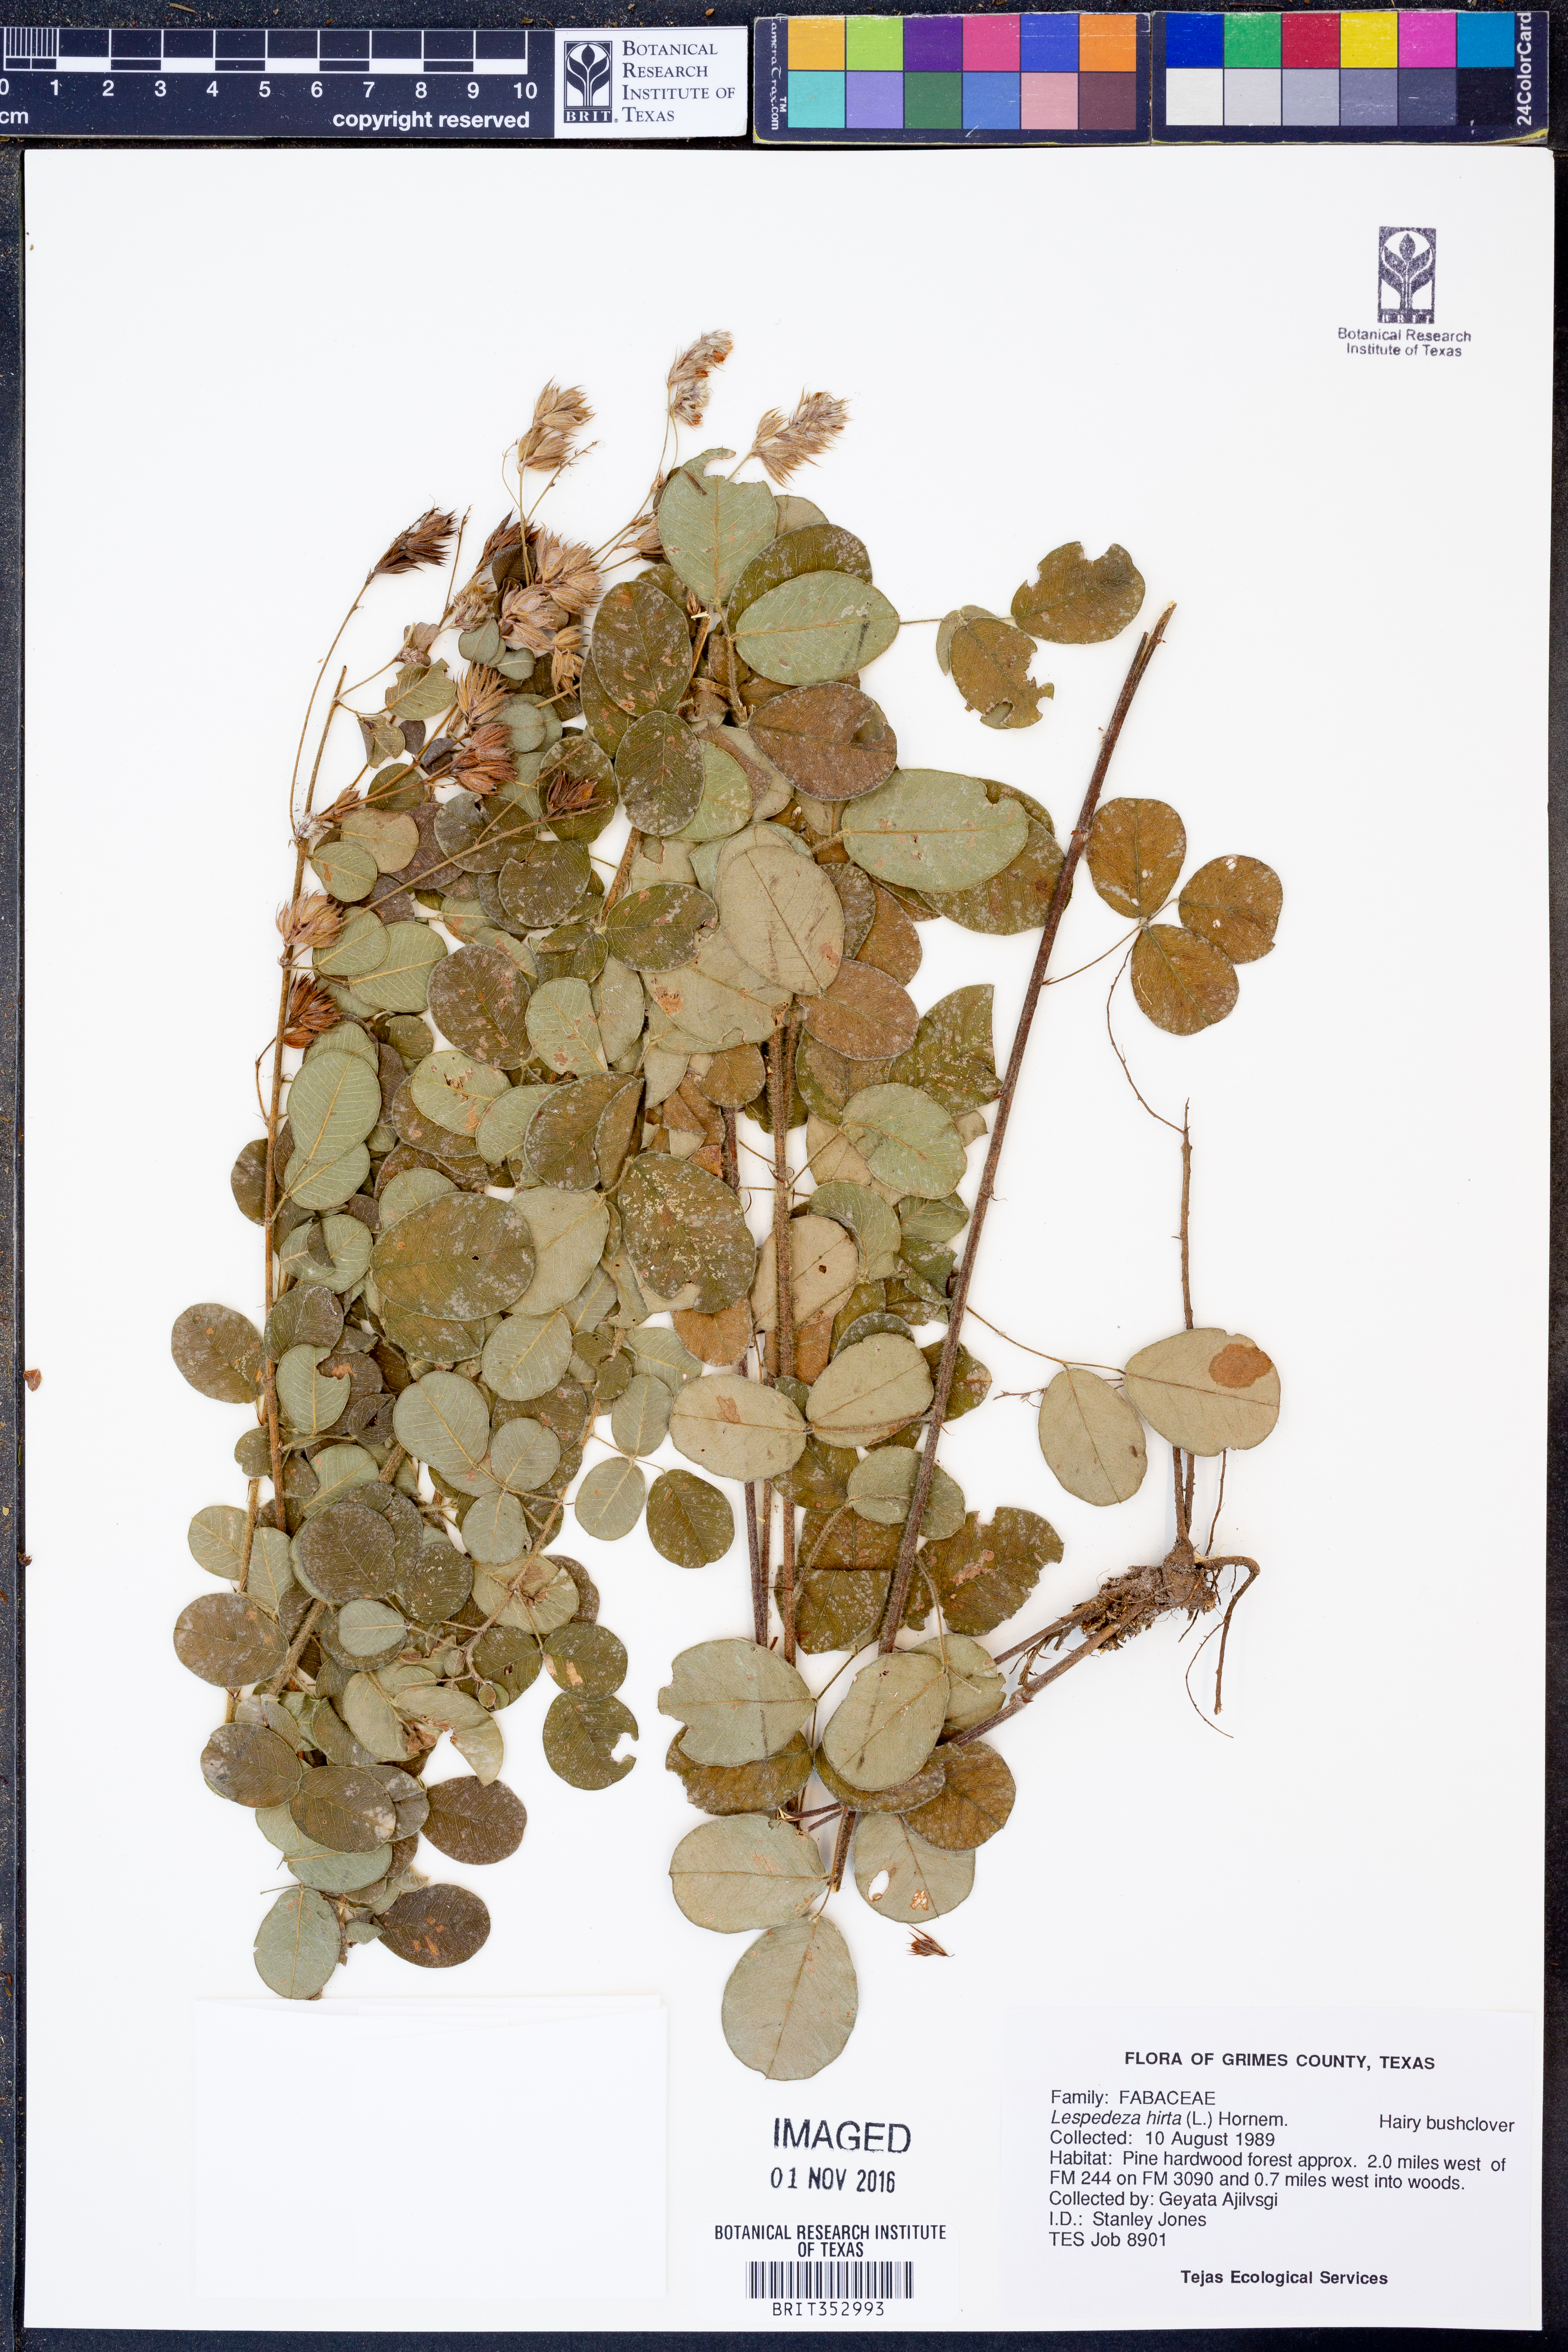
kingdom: Plantae
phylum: Tracheophyta
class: Magnoliopsida
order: Fabales
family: Fabaceae
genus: Lespedeza
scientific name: Lespedeza hirta
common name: Hairy lespedeza
